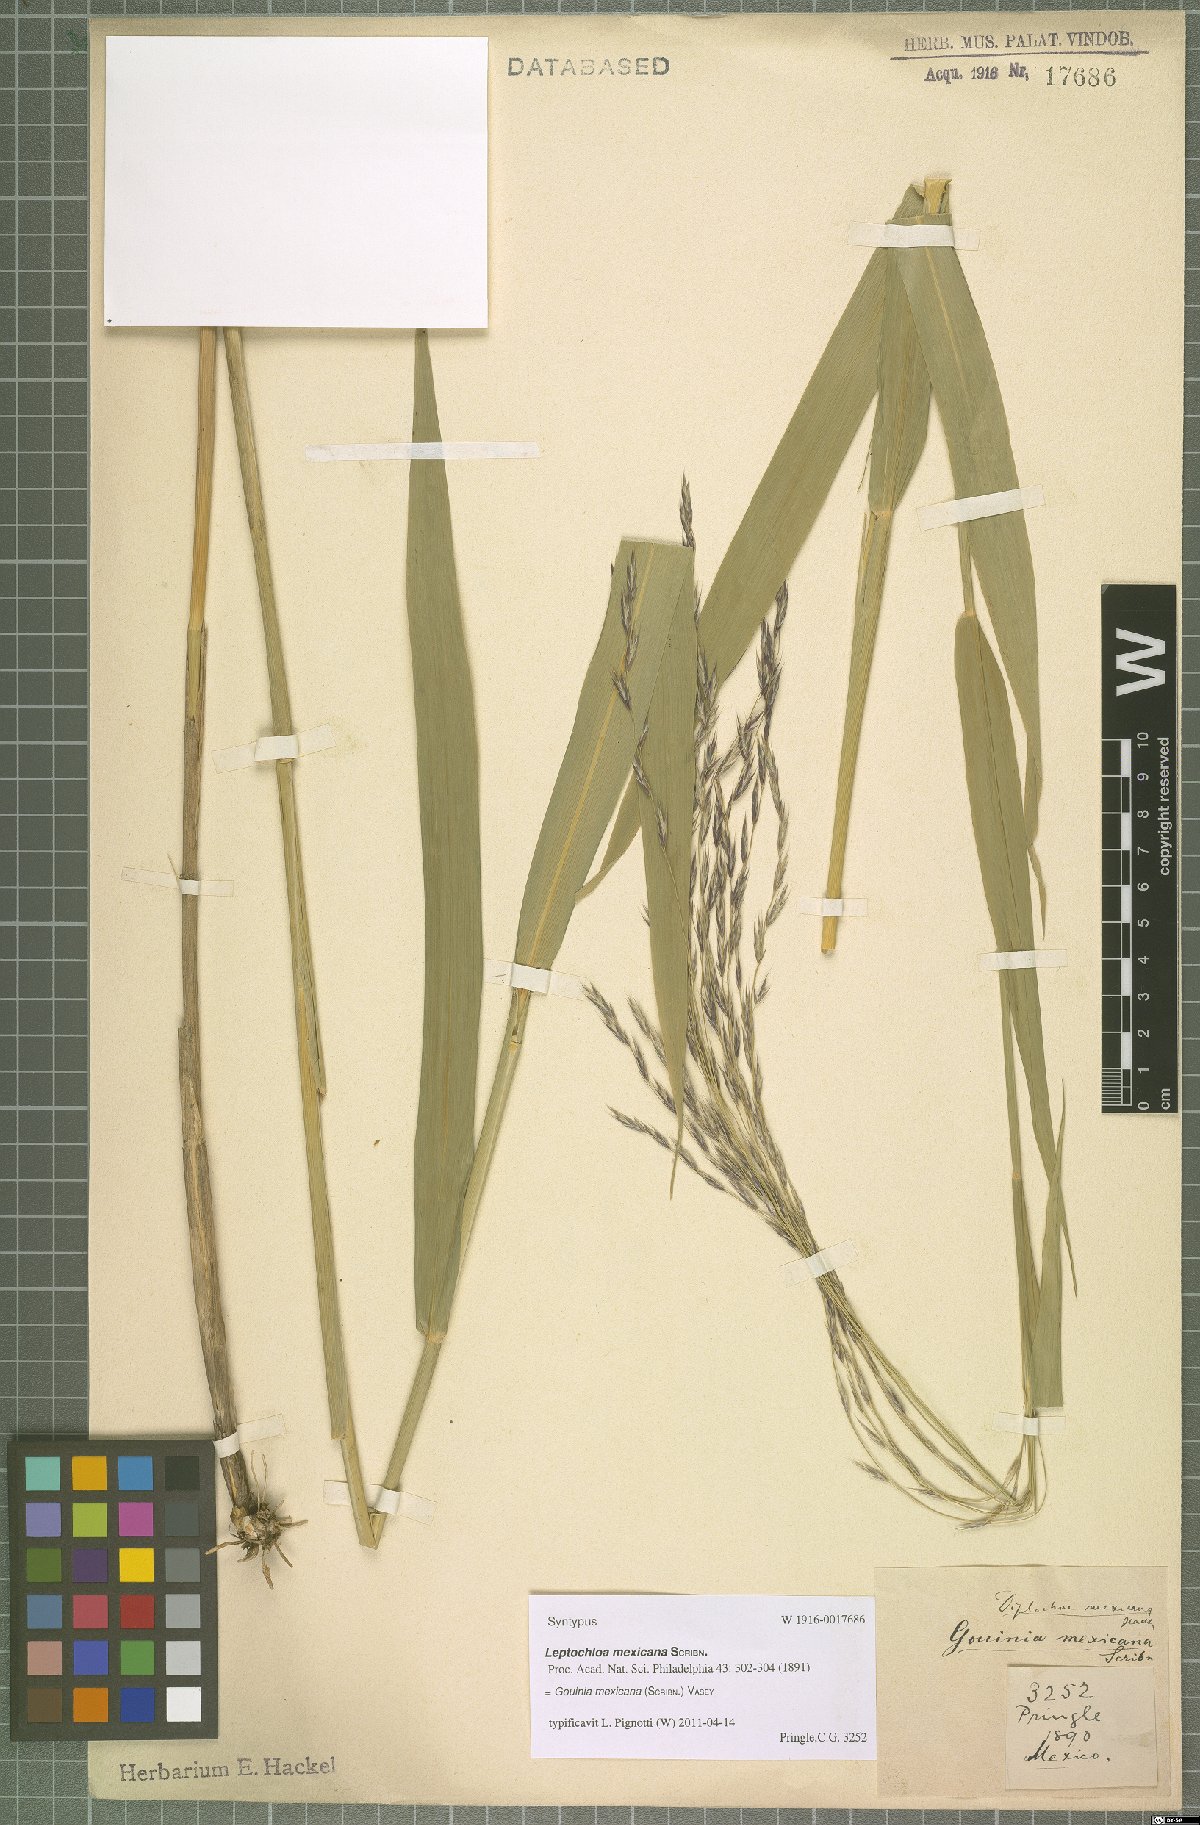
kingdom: Plantae
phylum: Tracheophyta
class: Liliopsida
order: Poales
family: Poaceae
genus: Gouinia
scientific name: Gouinia mexicana
